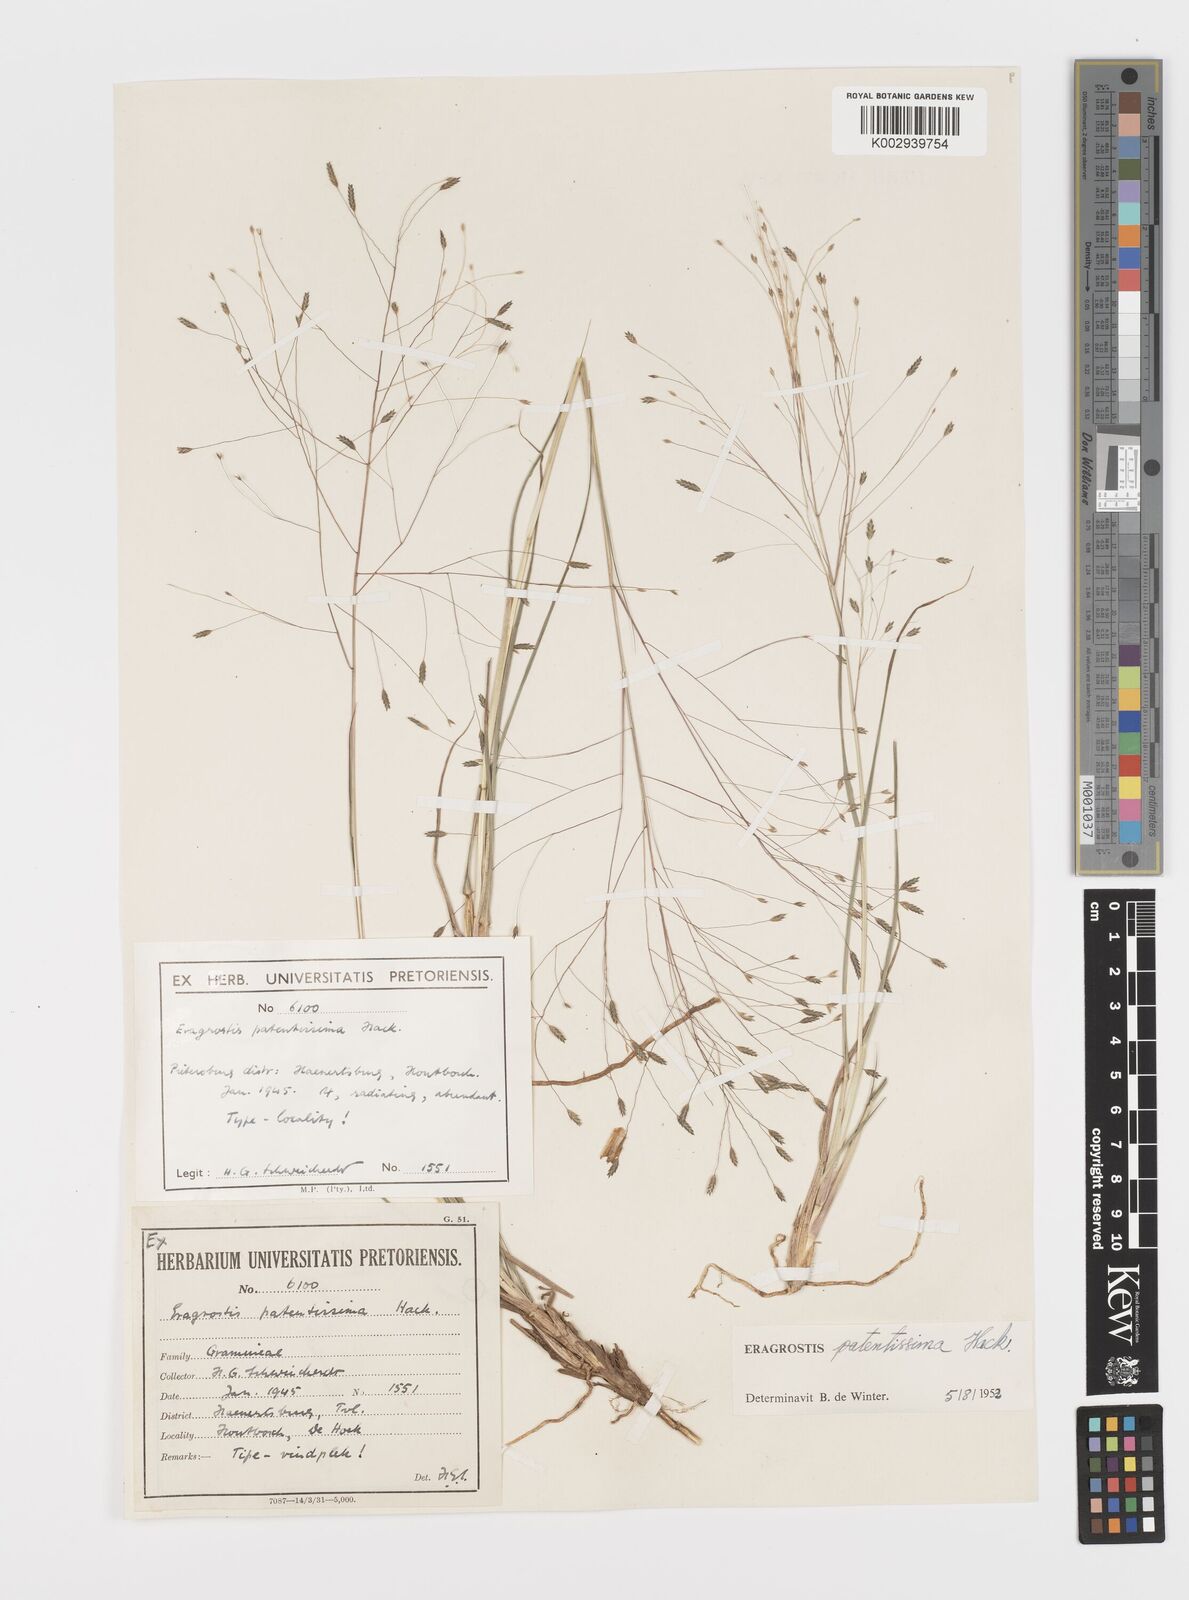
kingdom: Plantae
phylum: Tracheophyta
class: Liliopsida
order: Poales
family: Poaceae
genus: Eragrostis
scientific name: Eragrostis patentissima
